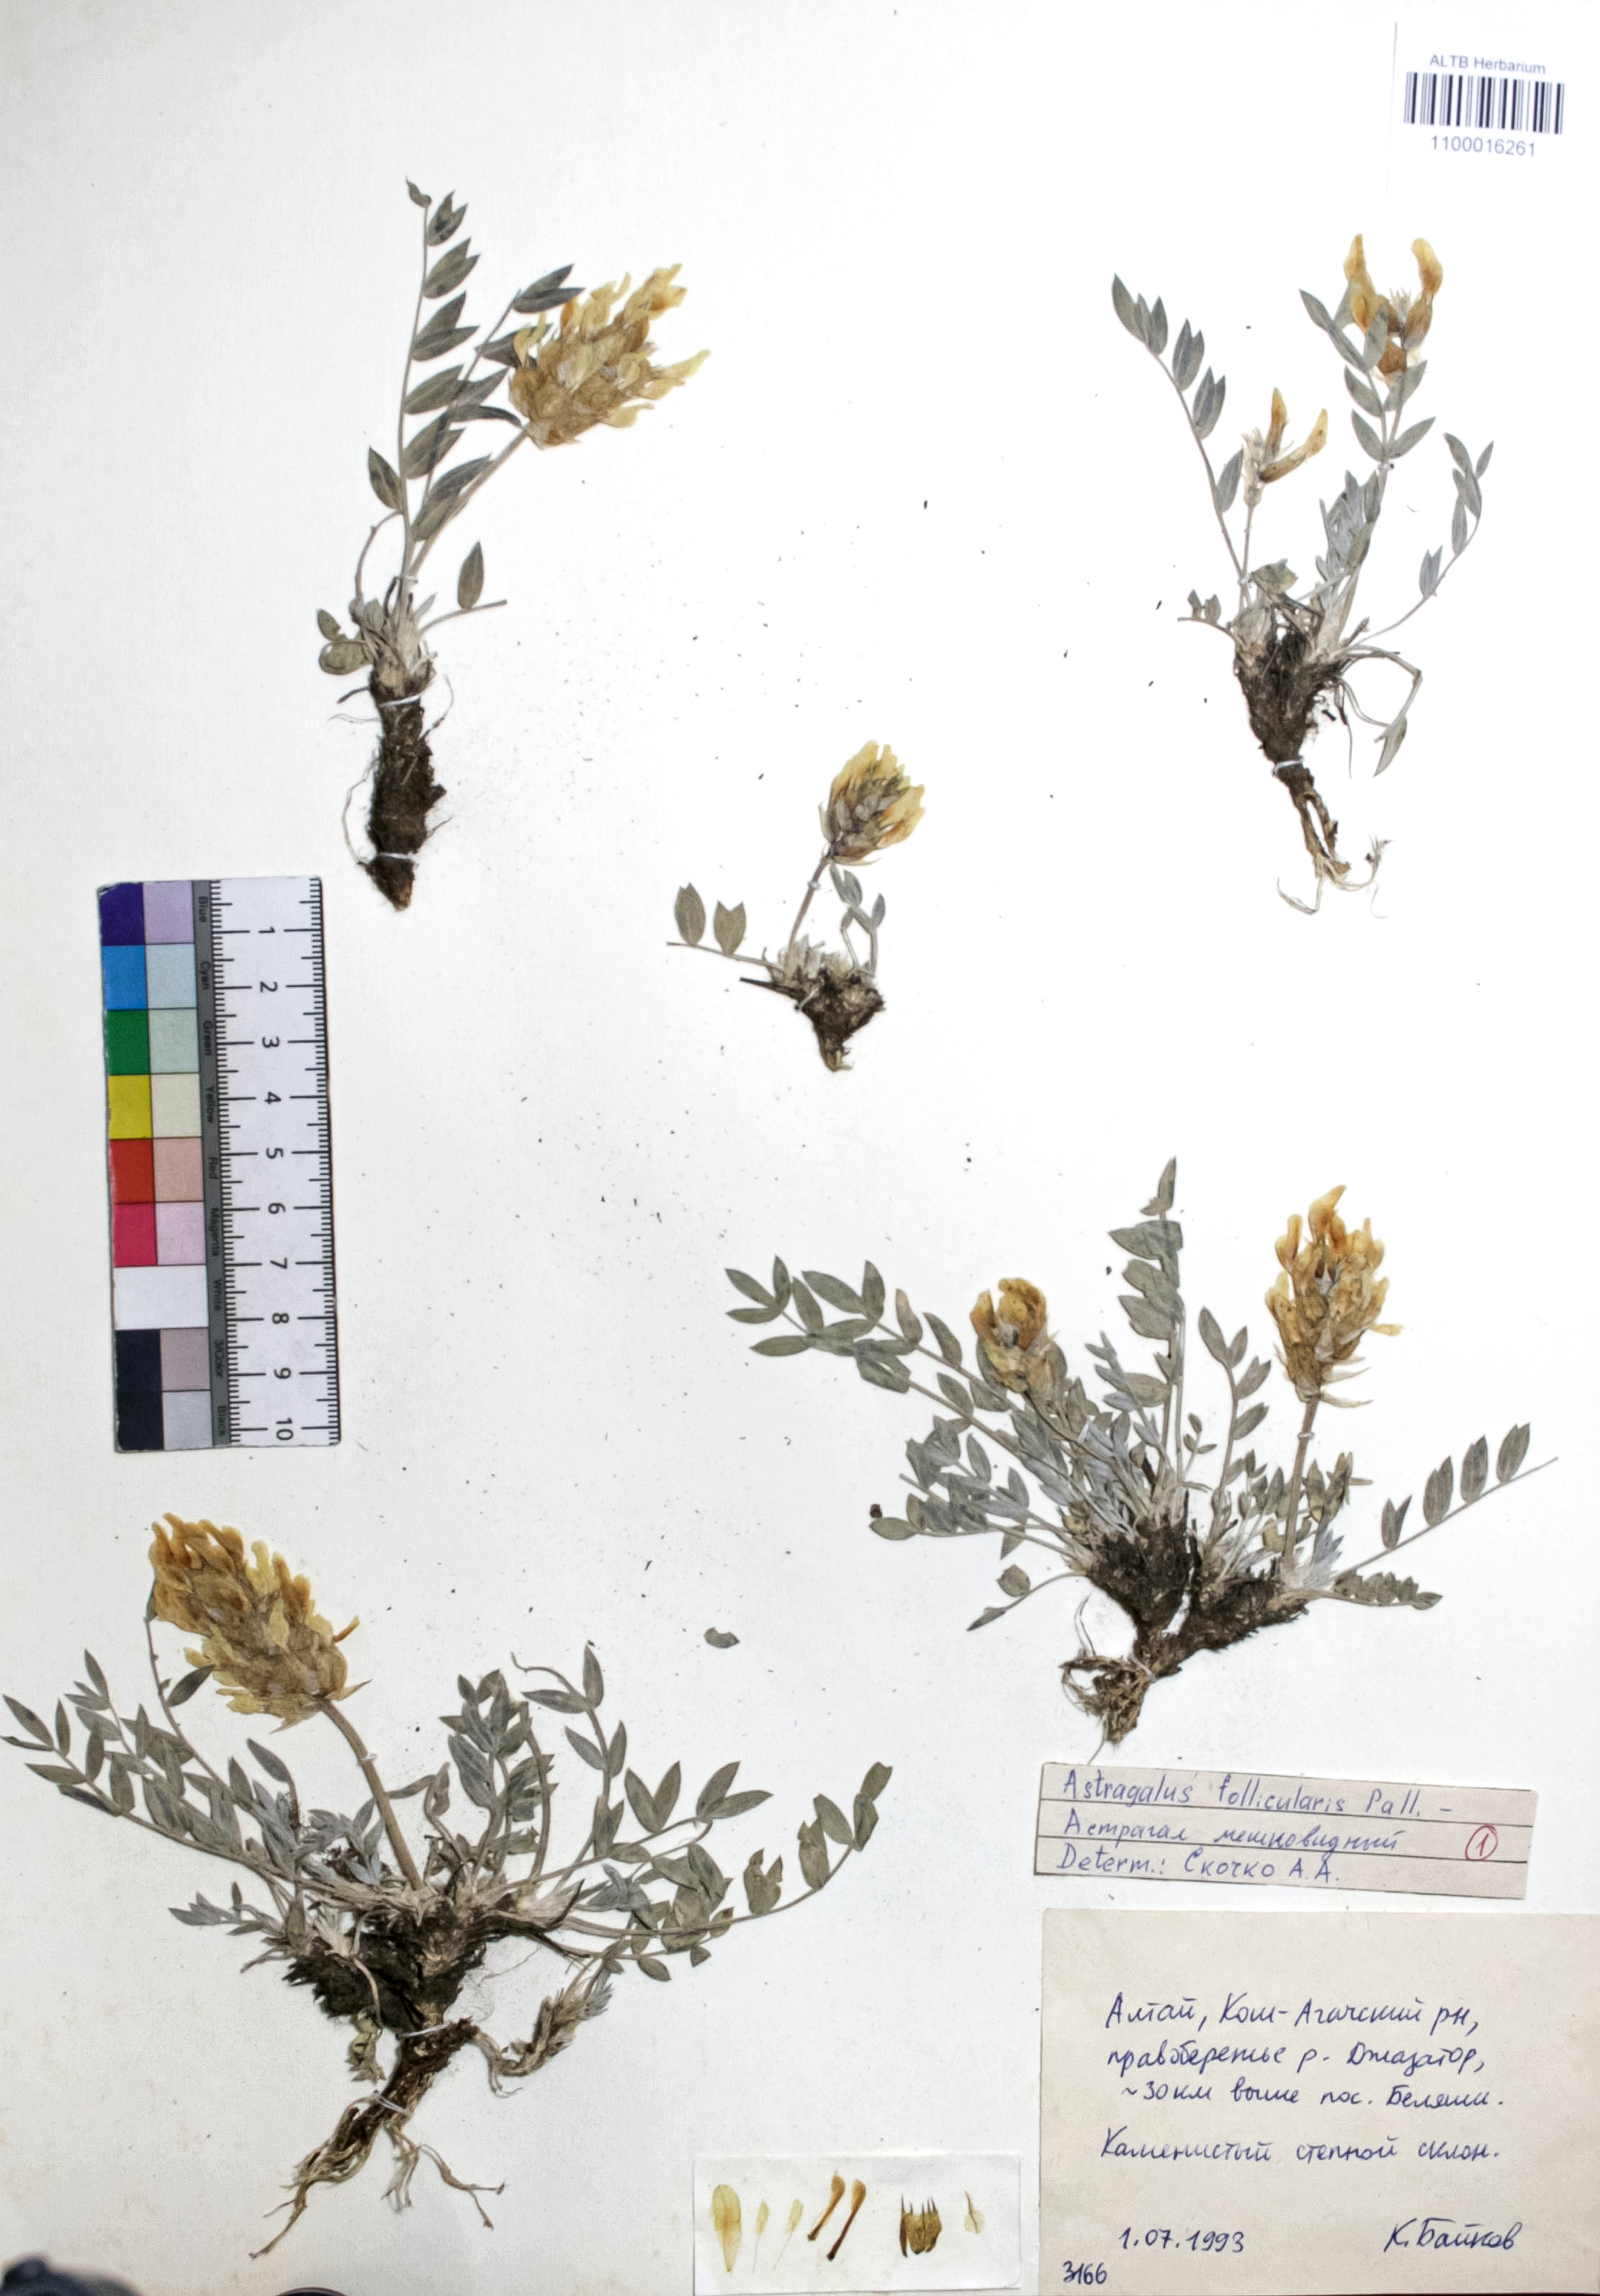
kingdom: Plantae
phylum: Tracheophyta
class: Magnoliopsida
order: Fabales
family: Fabaceae
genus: Astragalus
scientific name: Astragalus follicularis
